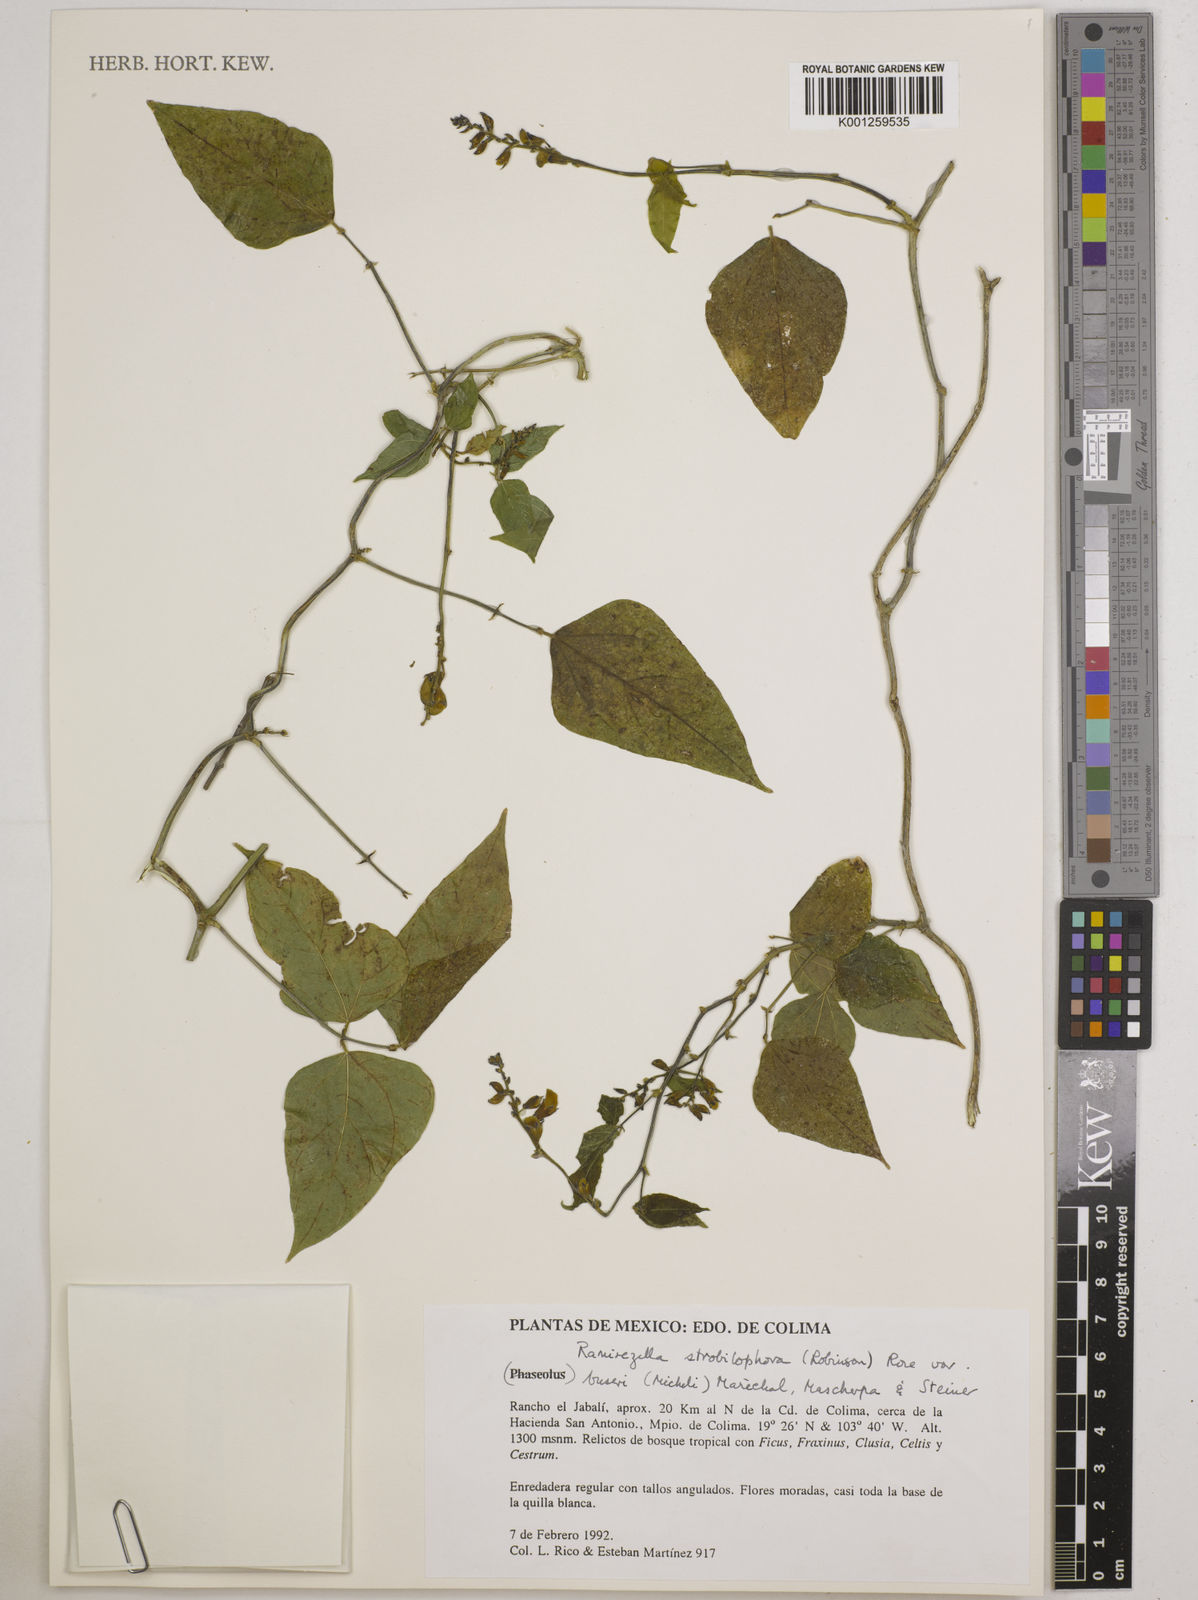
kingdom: Plantae
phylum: Tracheophyta
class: Magnoliopsida
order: Fabales
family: Fabaceae
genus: Ramirezella
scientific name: Ramirezella strobilophora
